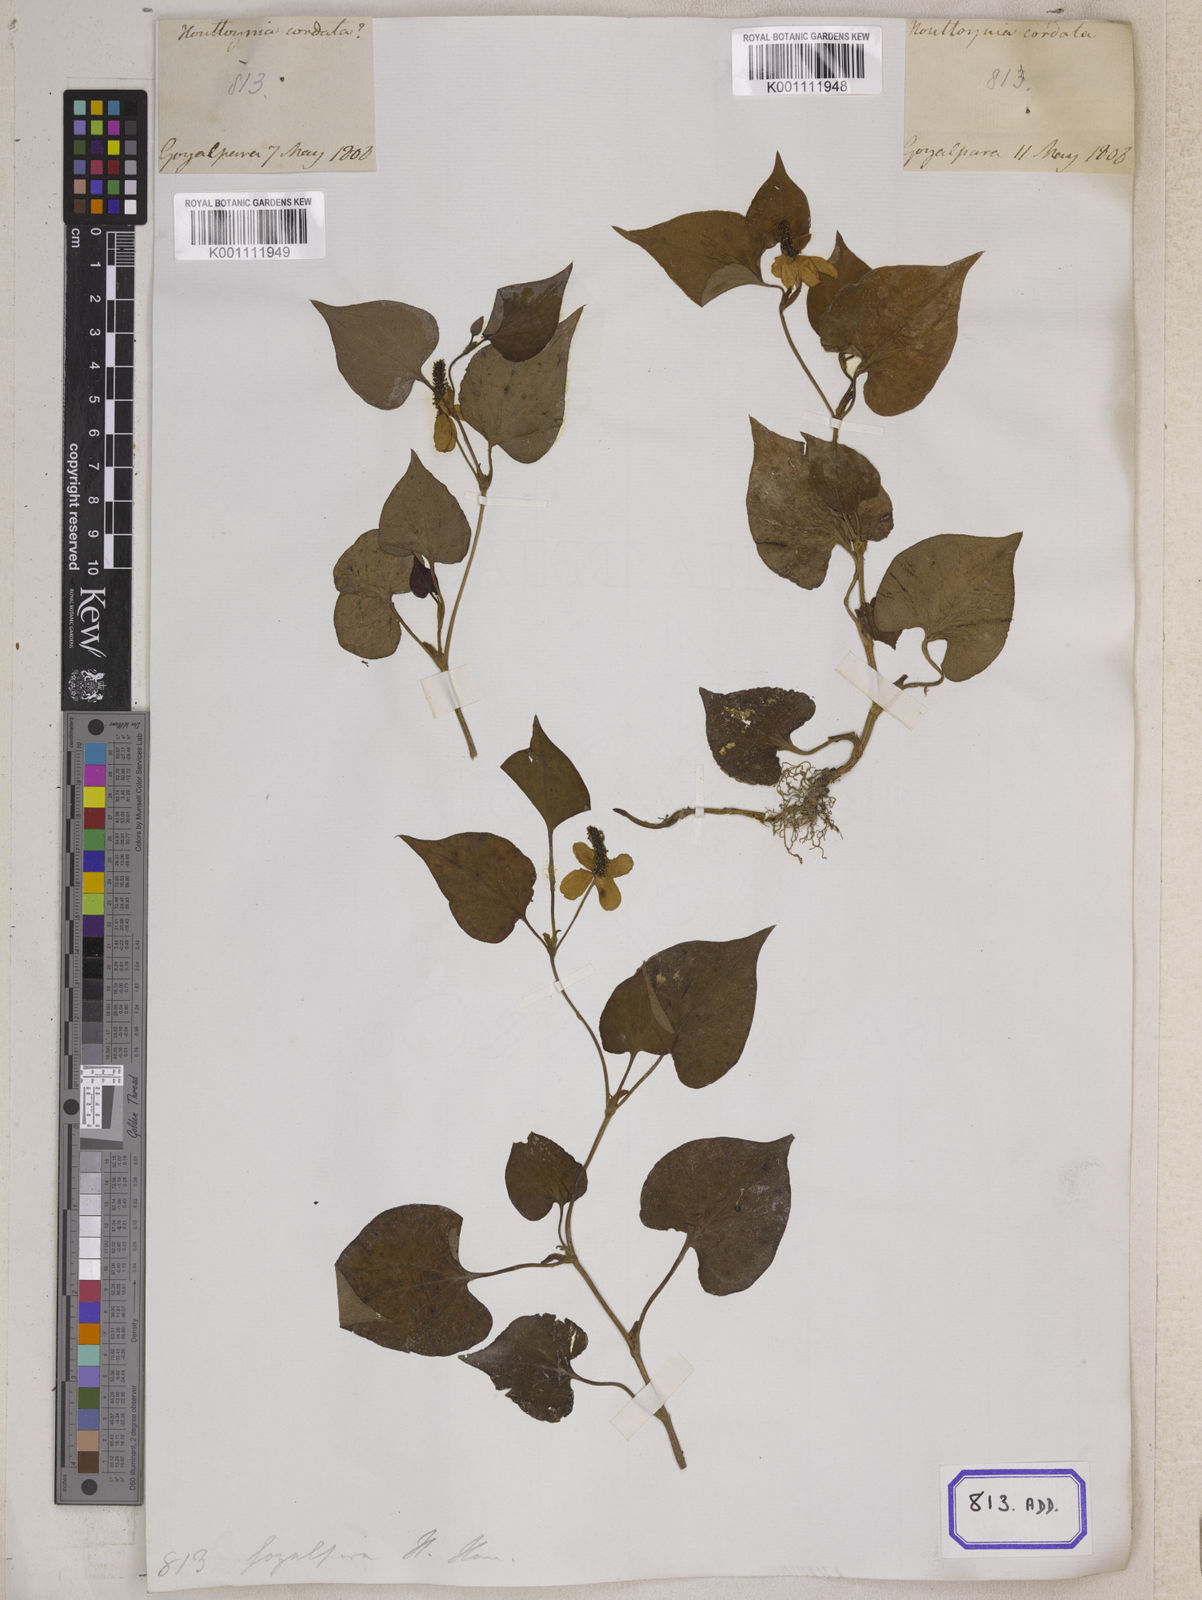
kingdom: Plantae
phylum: Tracheophyta
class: Magnoliopsida
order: Piperales
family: Saururaceae
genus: Houttuynia
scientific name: Houttuynia cordata
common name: Chameleon
